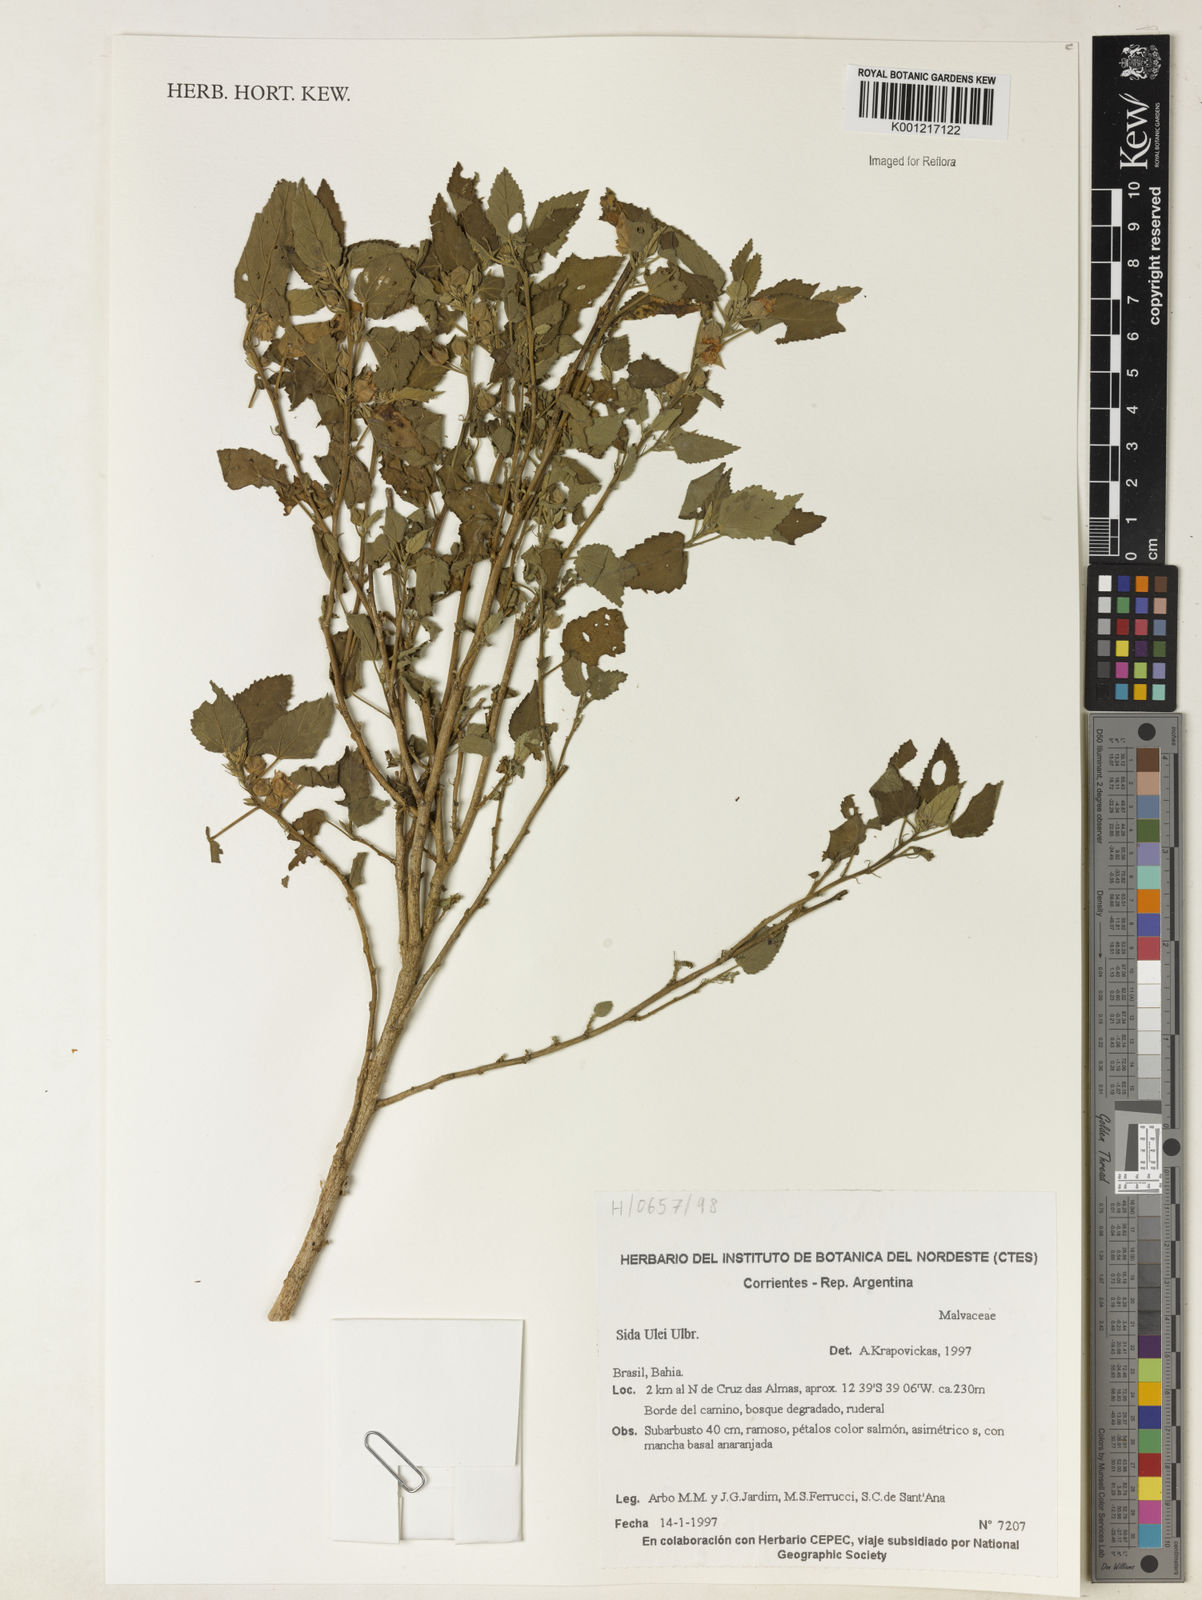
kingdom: Plantae
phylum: Tracheophyta
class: Magnoliopsida
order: Malvales
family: Malvaceae
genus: Sida
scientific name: Sida ulei
